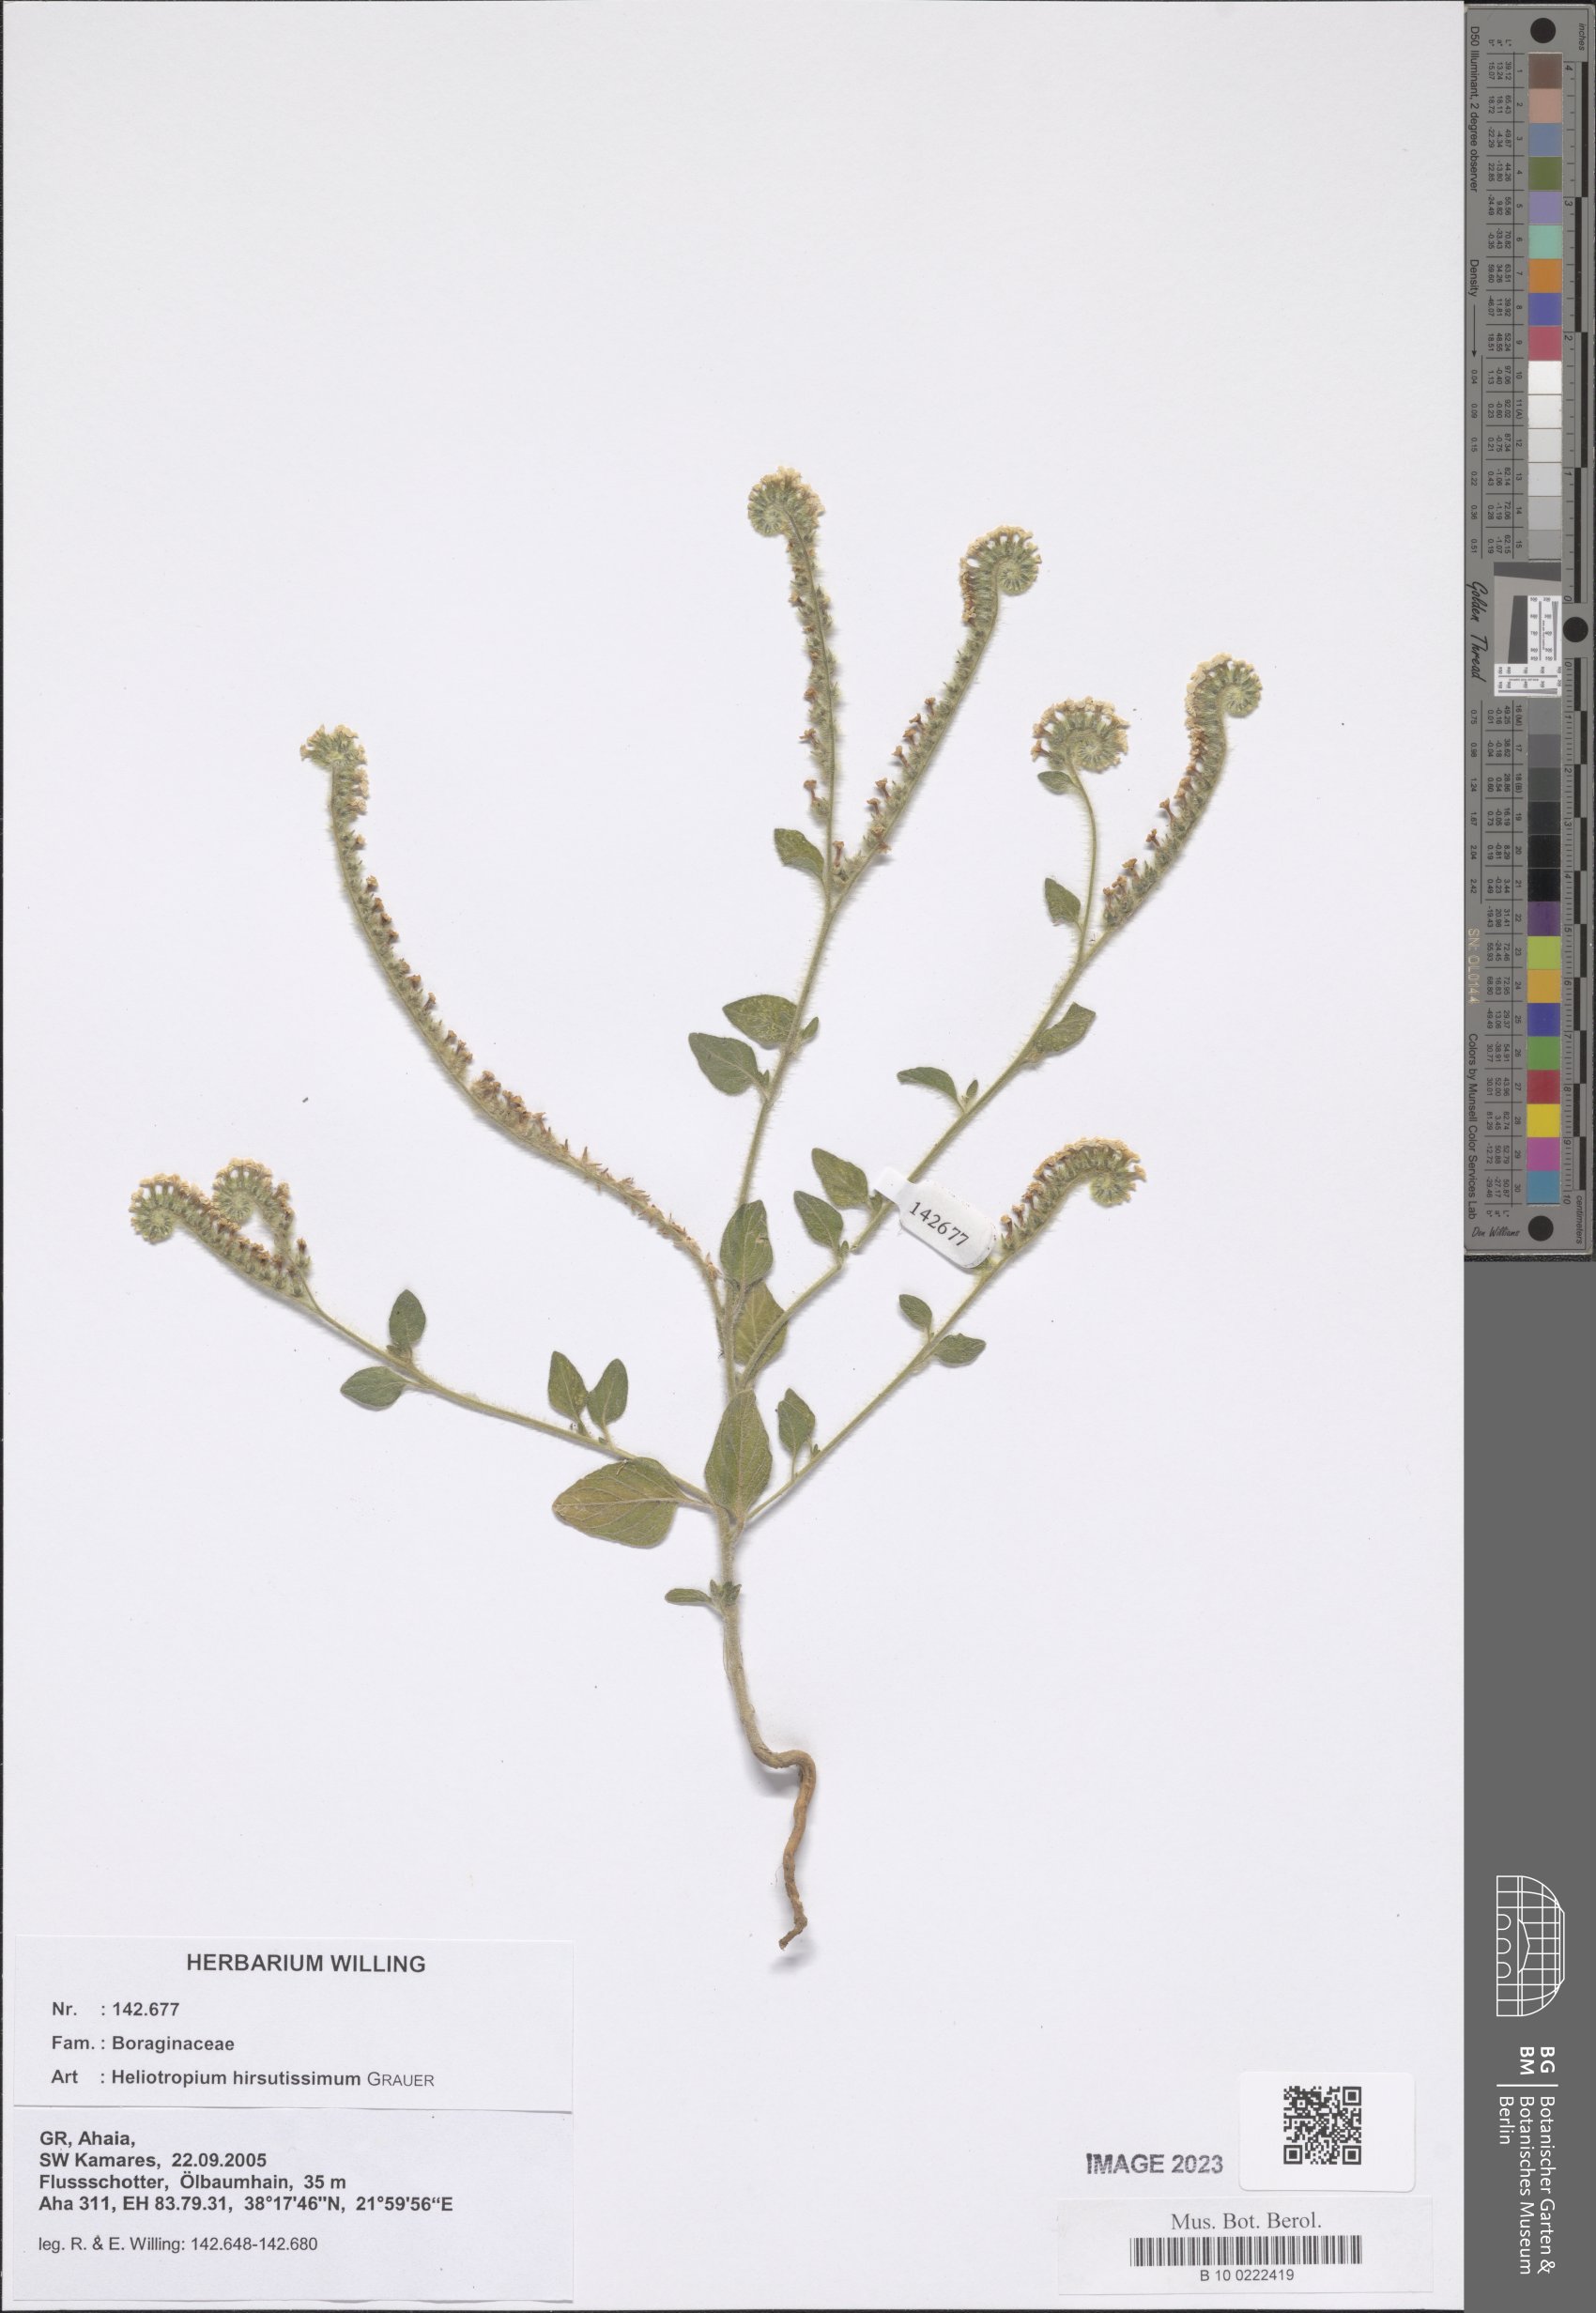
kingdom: Plantae
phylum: Tracheophyta
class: Magnoliopsida
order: Boraginales
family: Heliotropiaceae
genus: Heliotropium
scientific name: Heliotropium hirsutissimum
